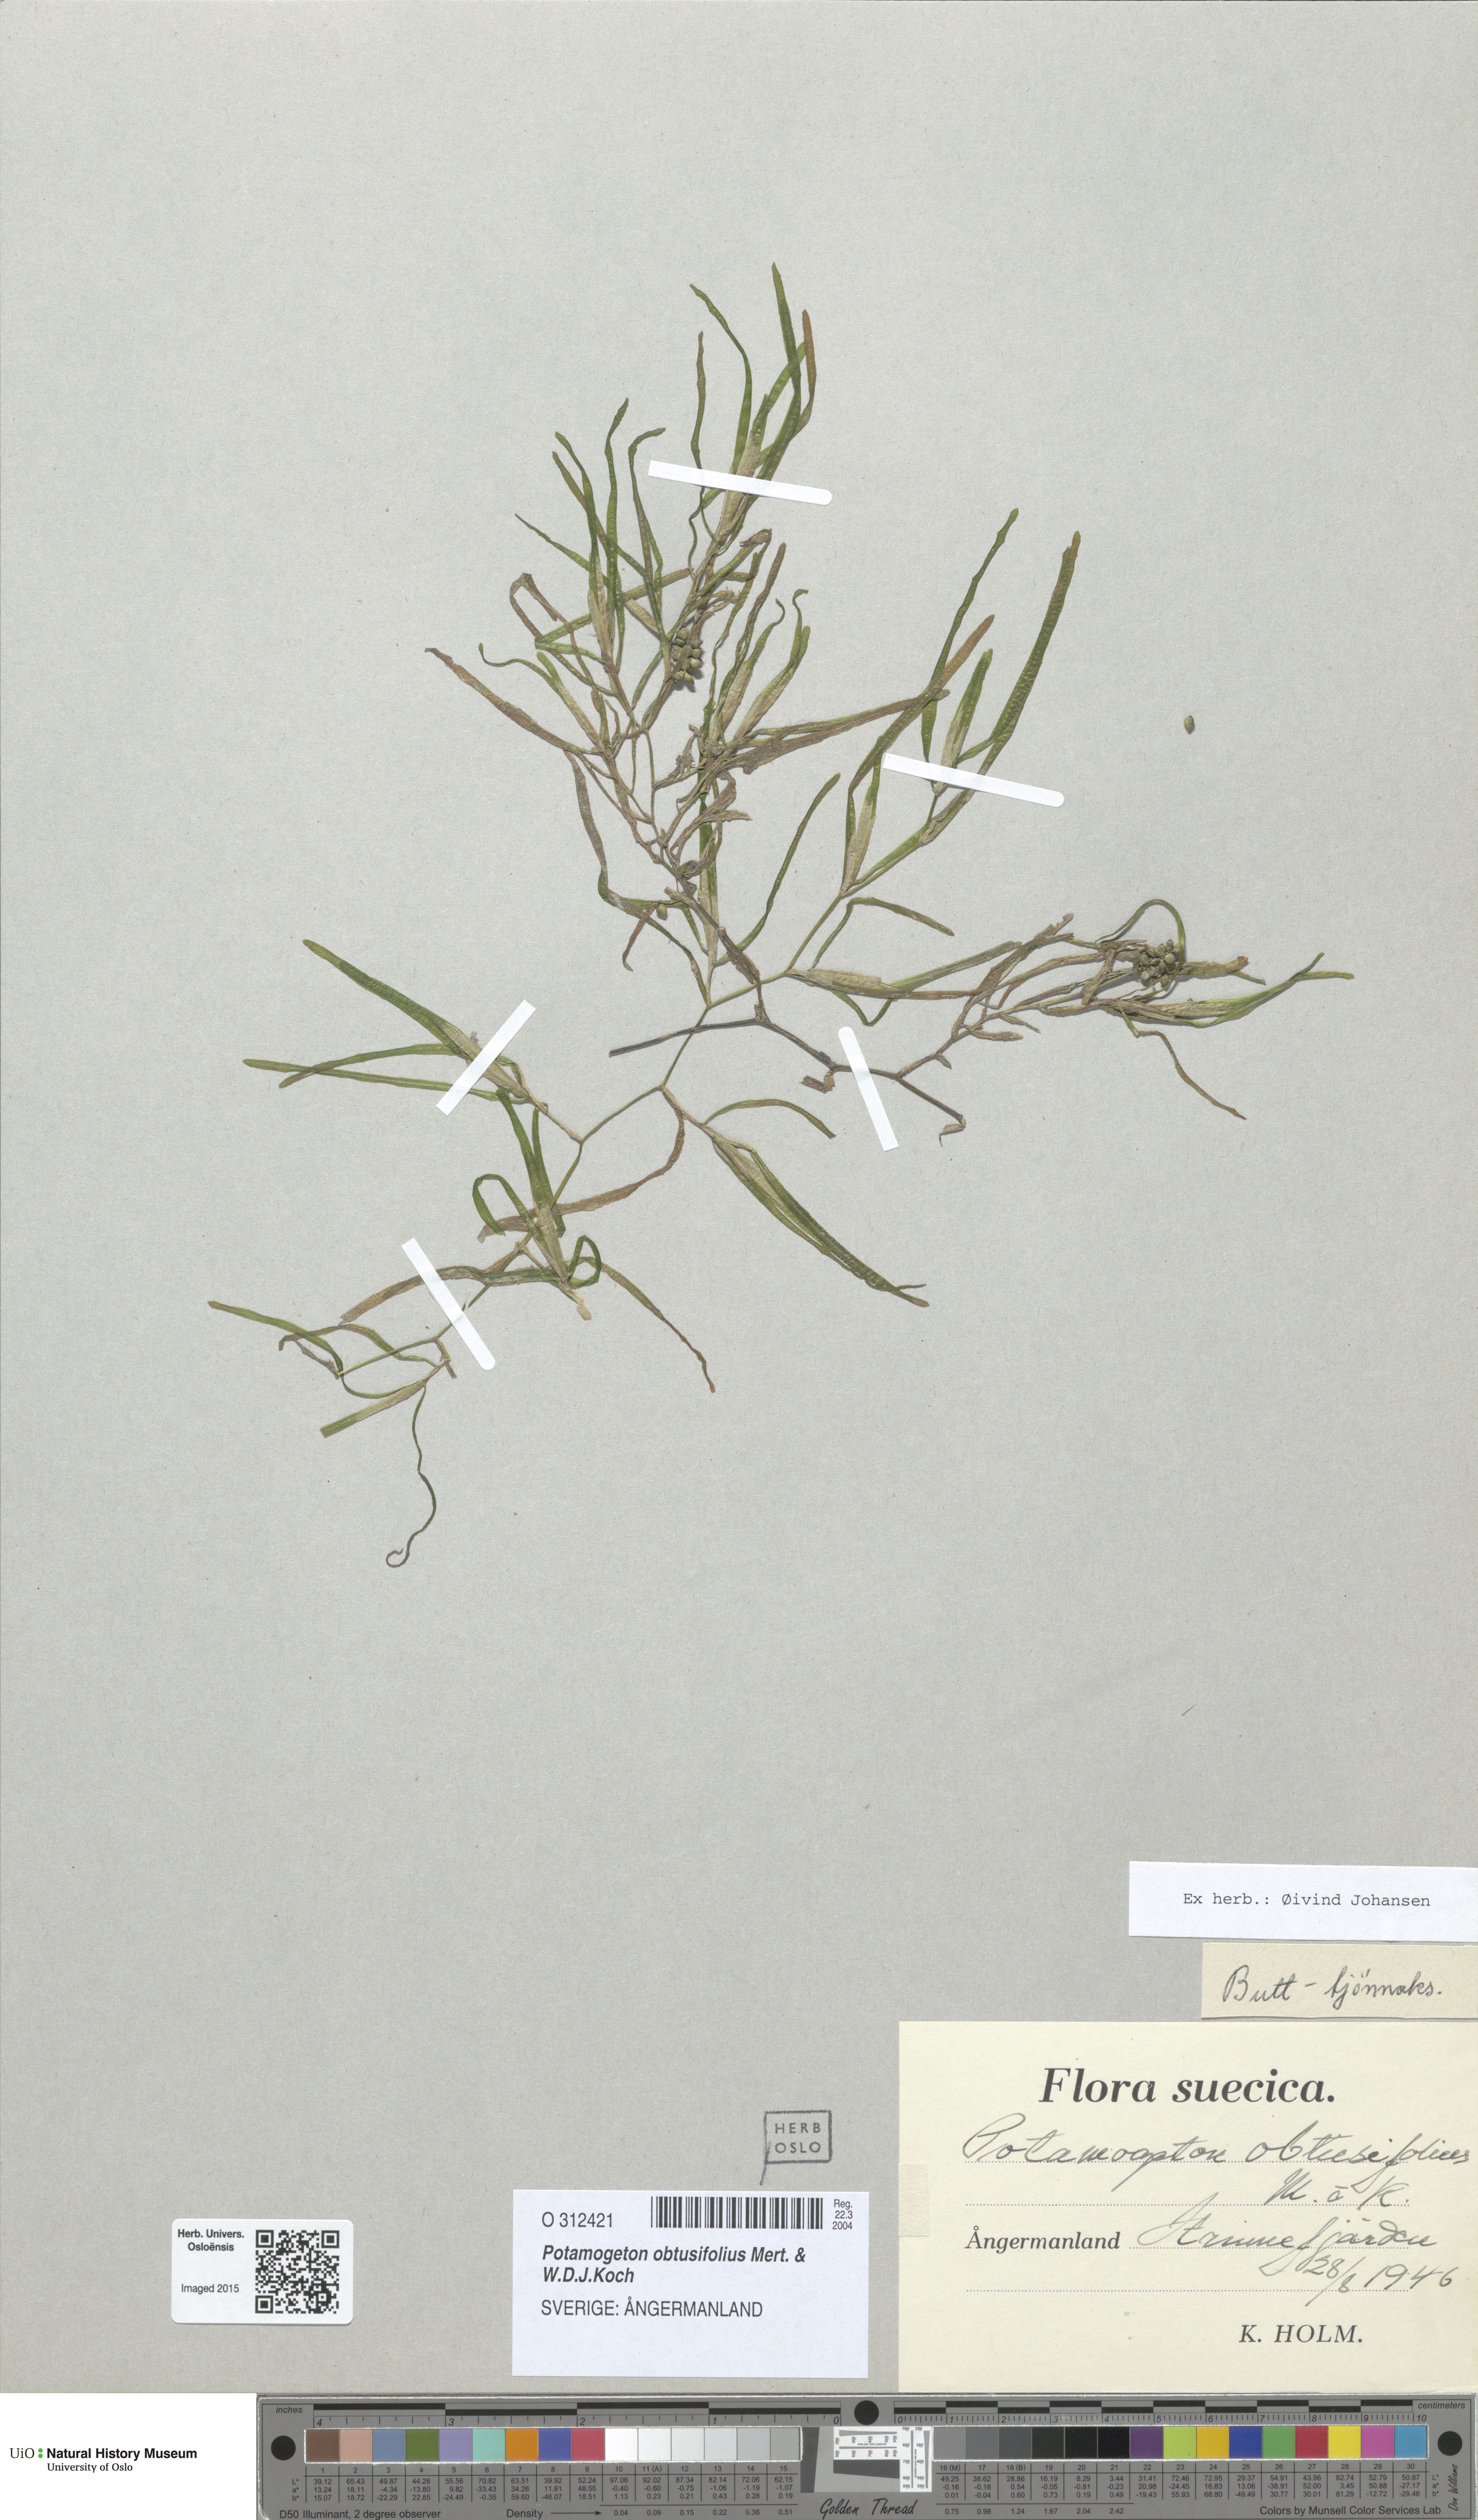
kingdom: Plantae
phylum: Tracheophyta
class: Liliopsida
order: Alismatales
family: Potamogetonaceae
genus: Potamogeton
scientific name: Potamogeton obtusifolius
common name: Blunt-leaved pondweed
